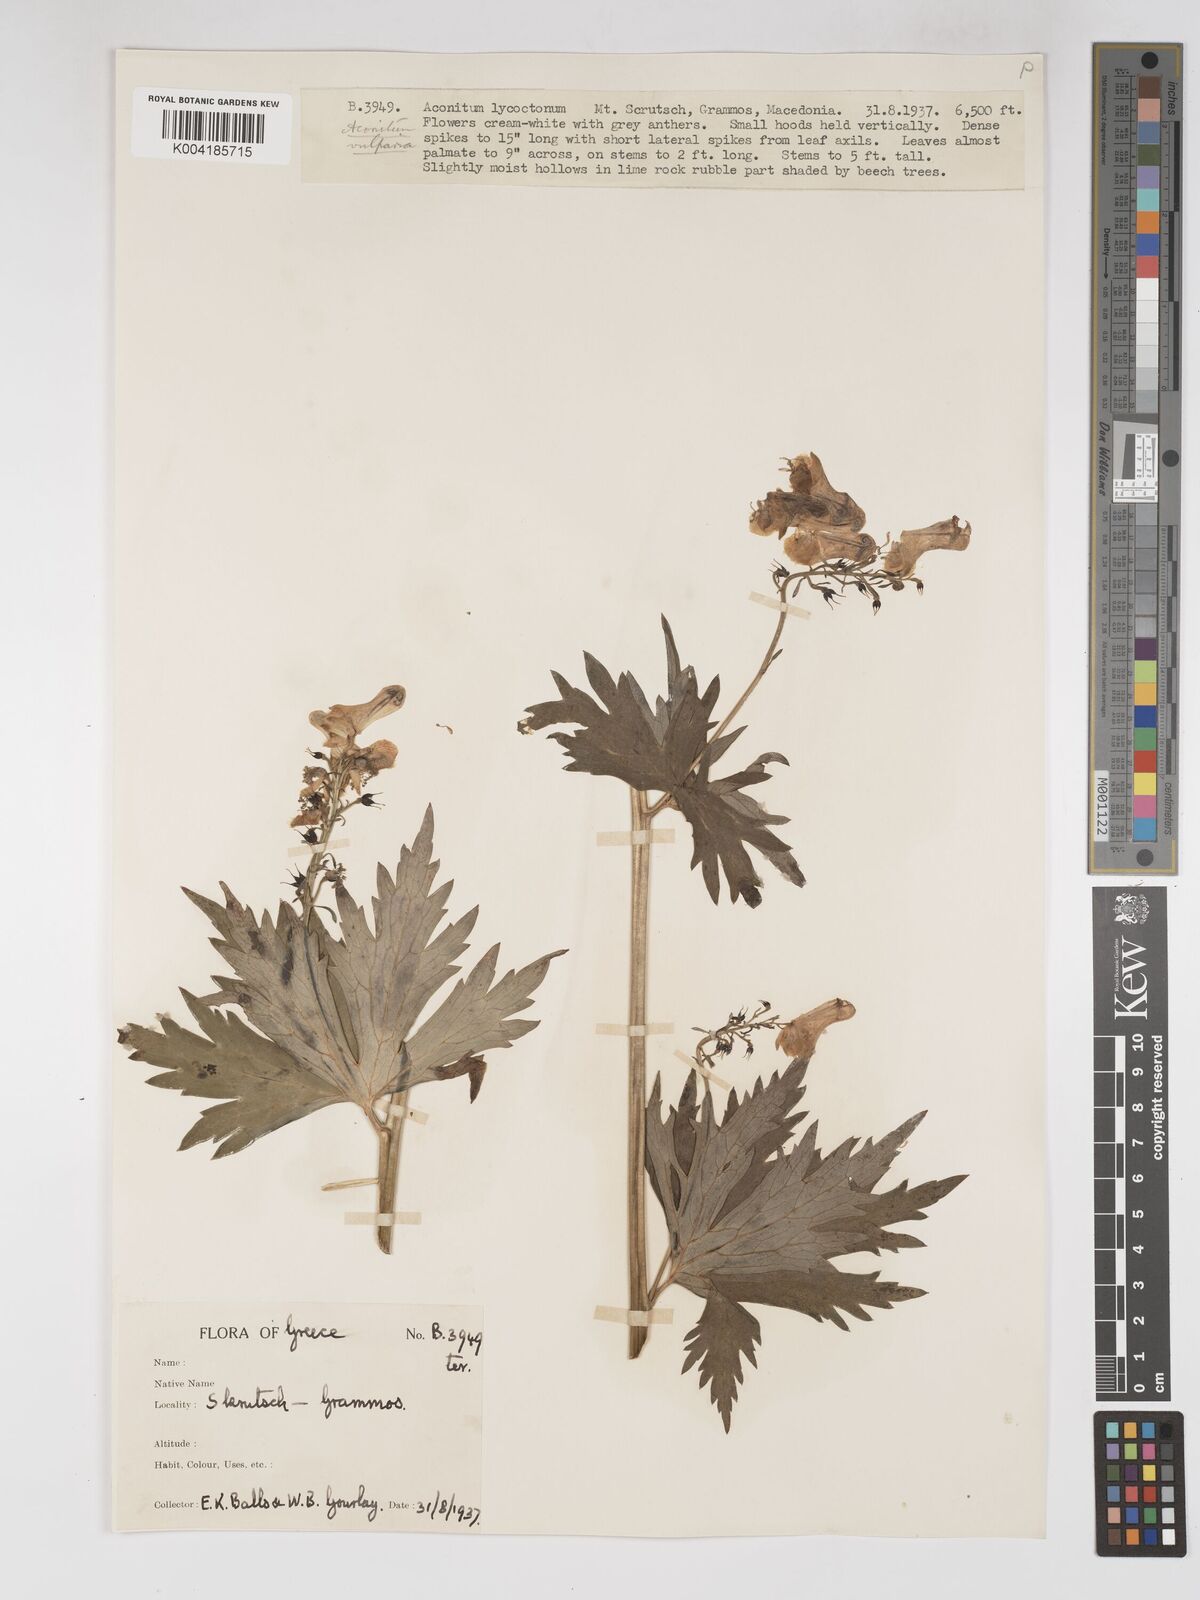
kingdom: Plantae
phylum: Tracheophyta
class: Magnoliopsida
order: Ranunculales
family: Ranunculaceae
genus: Aconitum
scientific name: Aconitum lycoctonum
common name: Wolf's-bane
